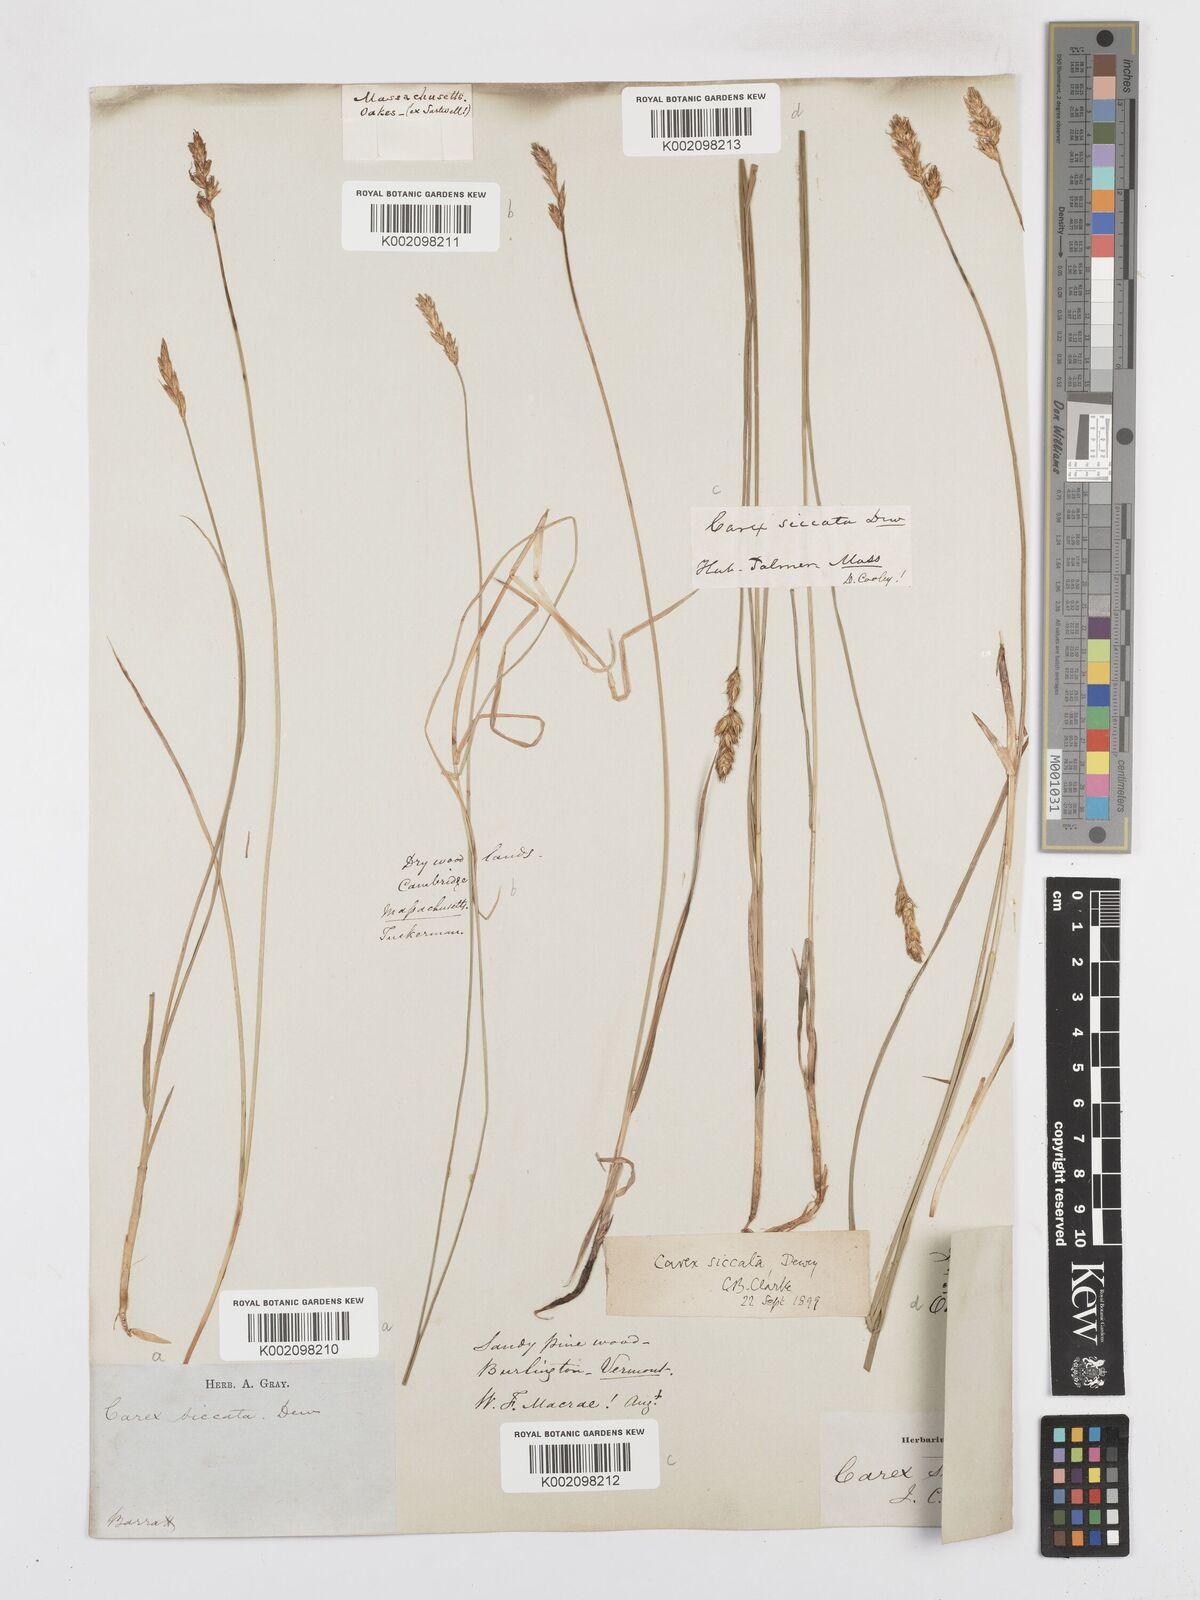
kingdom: Plantae
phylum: Tracheophyta
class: Liliopsida
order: Poales
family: Cyperaceae
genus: Carex
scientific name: Carex foenea
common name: Bronze sedge
